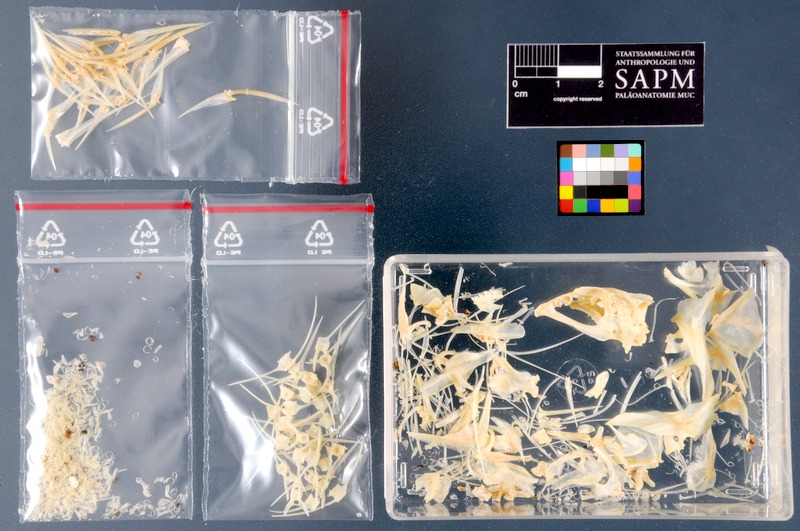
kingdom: Animalia
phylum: Chordata
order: Perciformes
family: Labridae
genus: Symphodus
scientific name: Symphodus tinca
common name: Peacock wrasse
